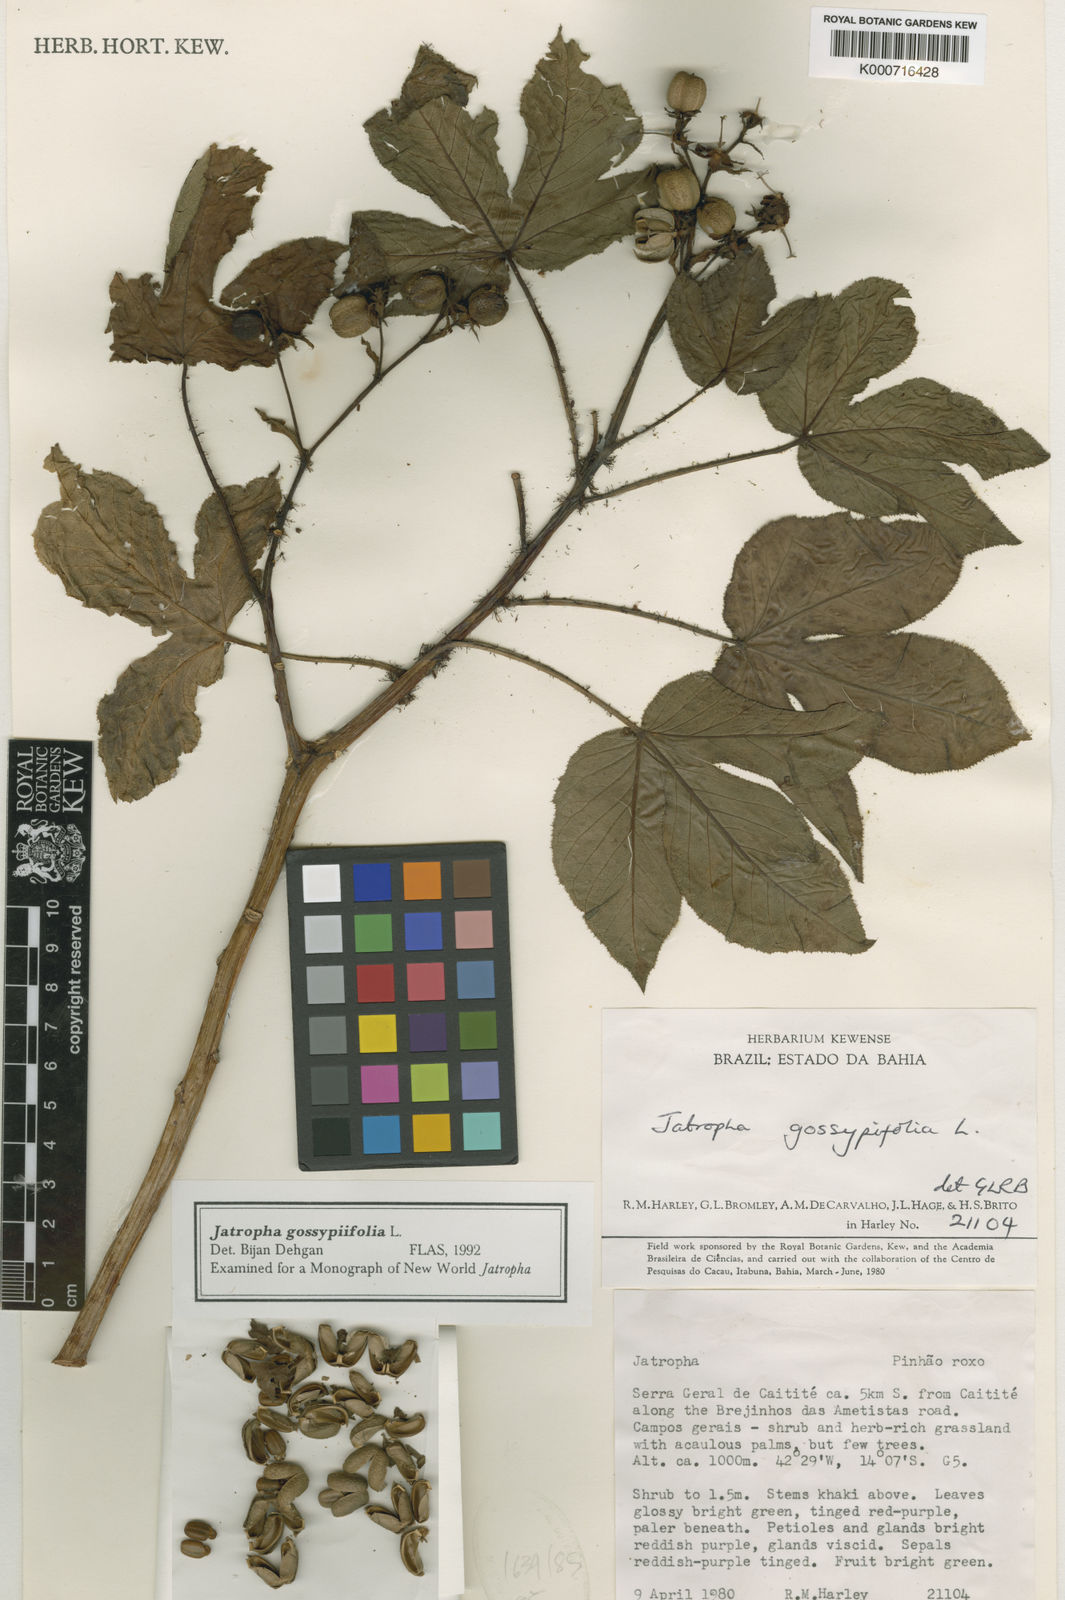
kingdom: Plantae
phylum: Tracheophyta
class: Magnoliopsida
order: Malpighiales
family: Euphorbiaceae
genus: Jatropha
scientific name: Jatropha gossypiifolia
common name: Bellyache bush
